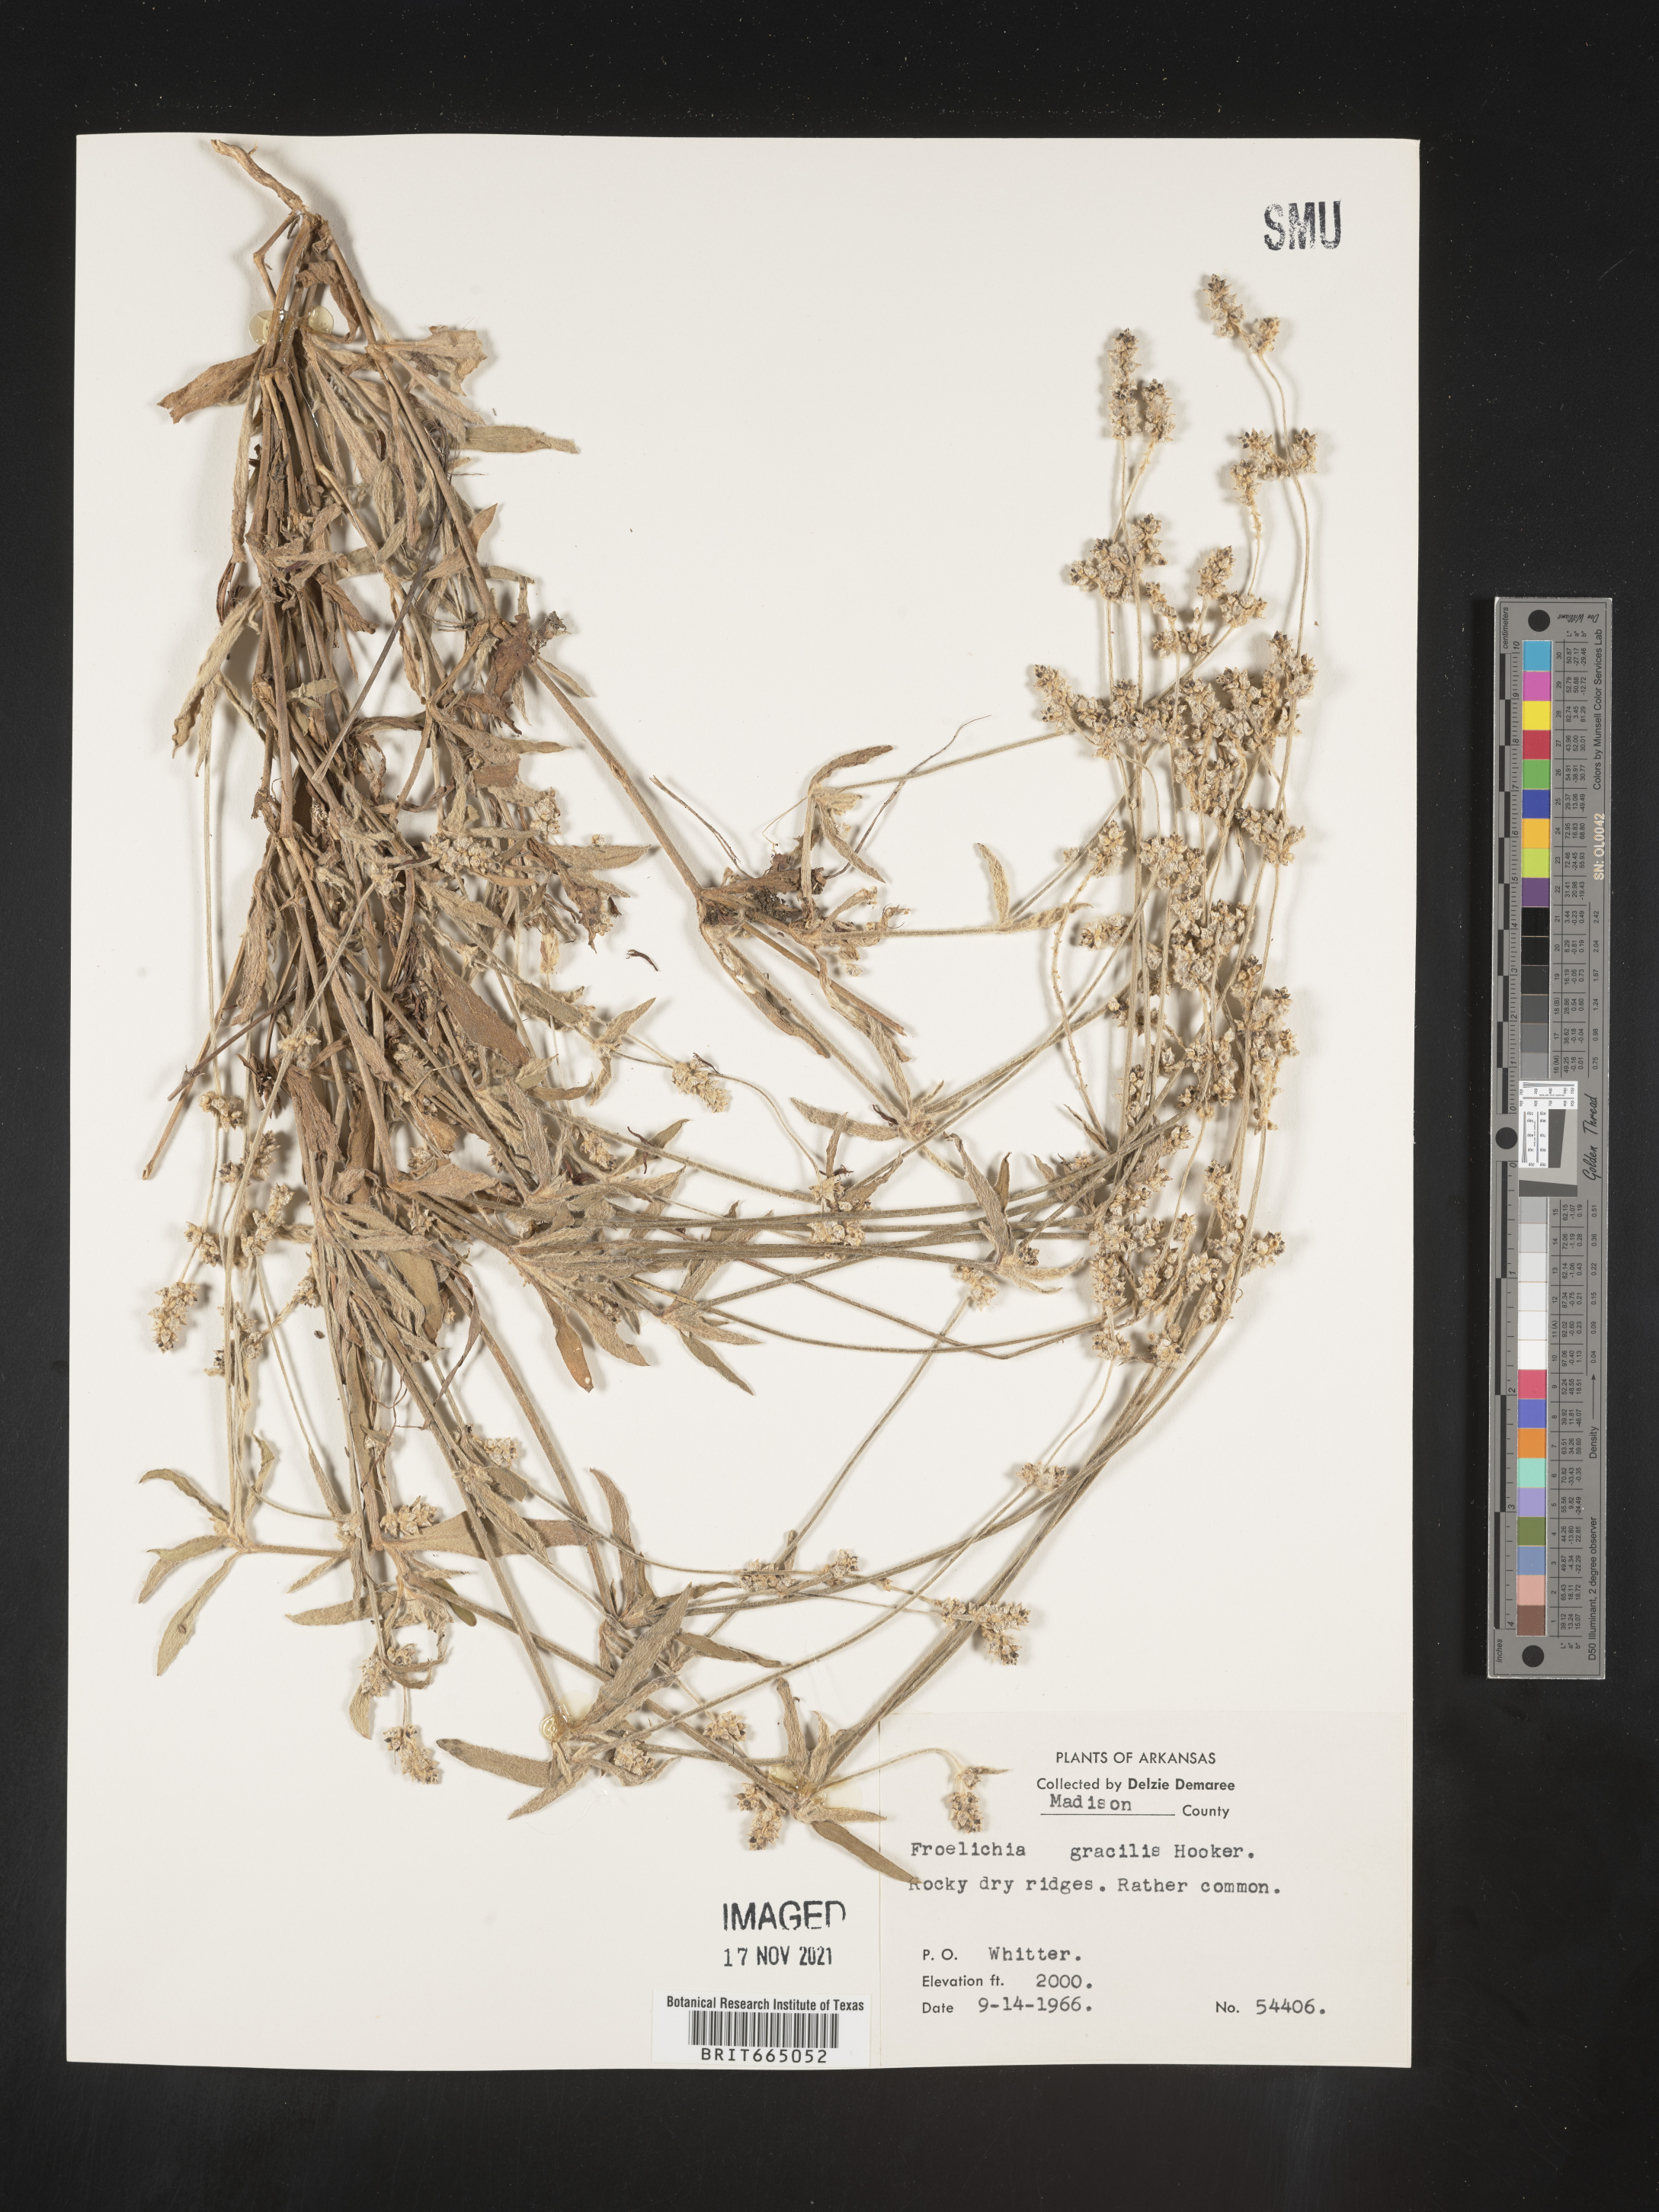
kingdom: Plantae
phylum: Tracheophyta
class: Magnoliopsida
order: Caryophyllales
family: Amaranthaceae
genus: Froelichia
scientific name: Froelichia gracilis
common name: Slender cottonweed
